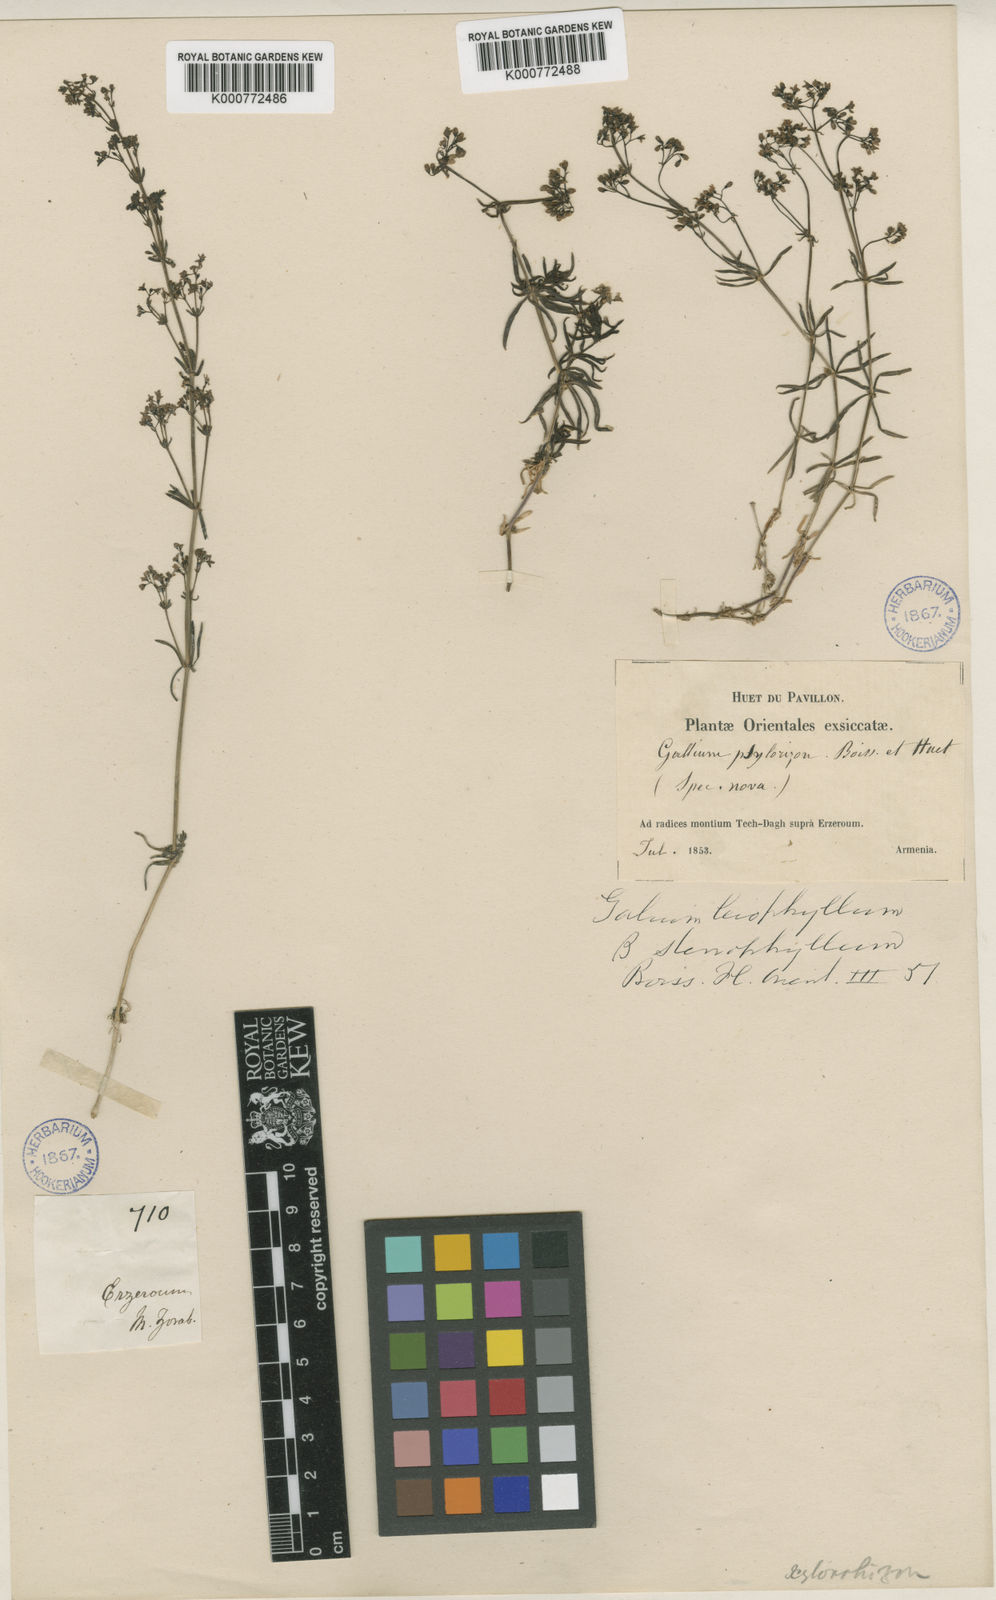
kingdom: Plantae
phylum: Tracheophyta
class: Magnoliopsida
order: Gentianales
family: Rubiaceae
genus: Galium
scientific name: Galium xylorrhizum
